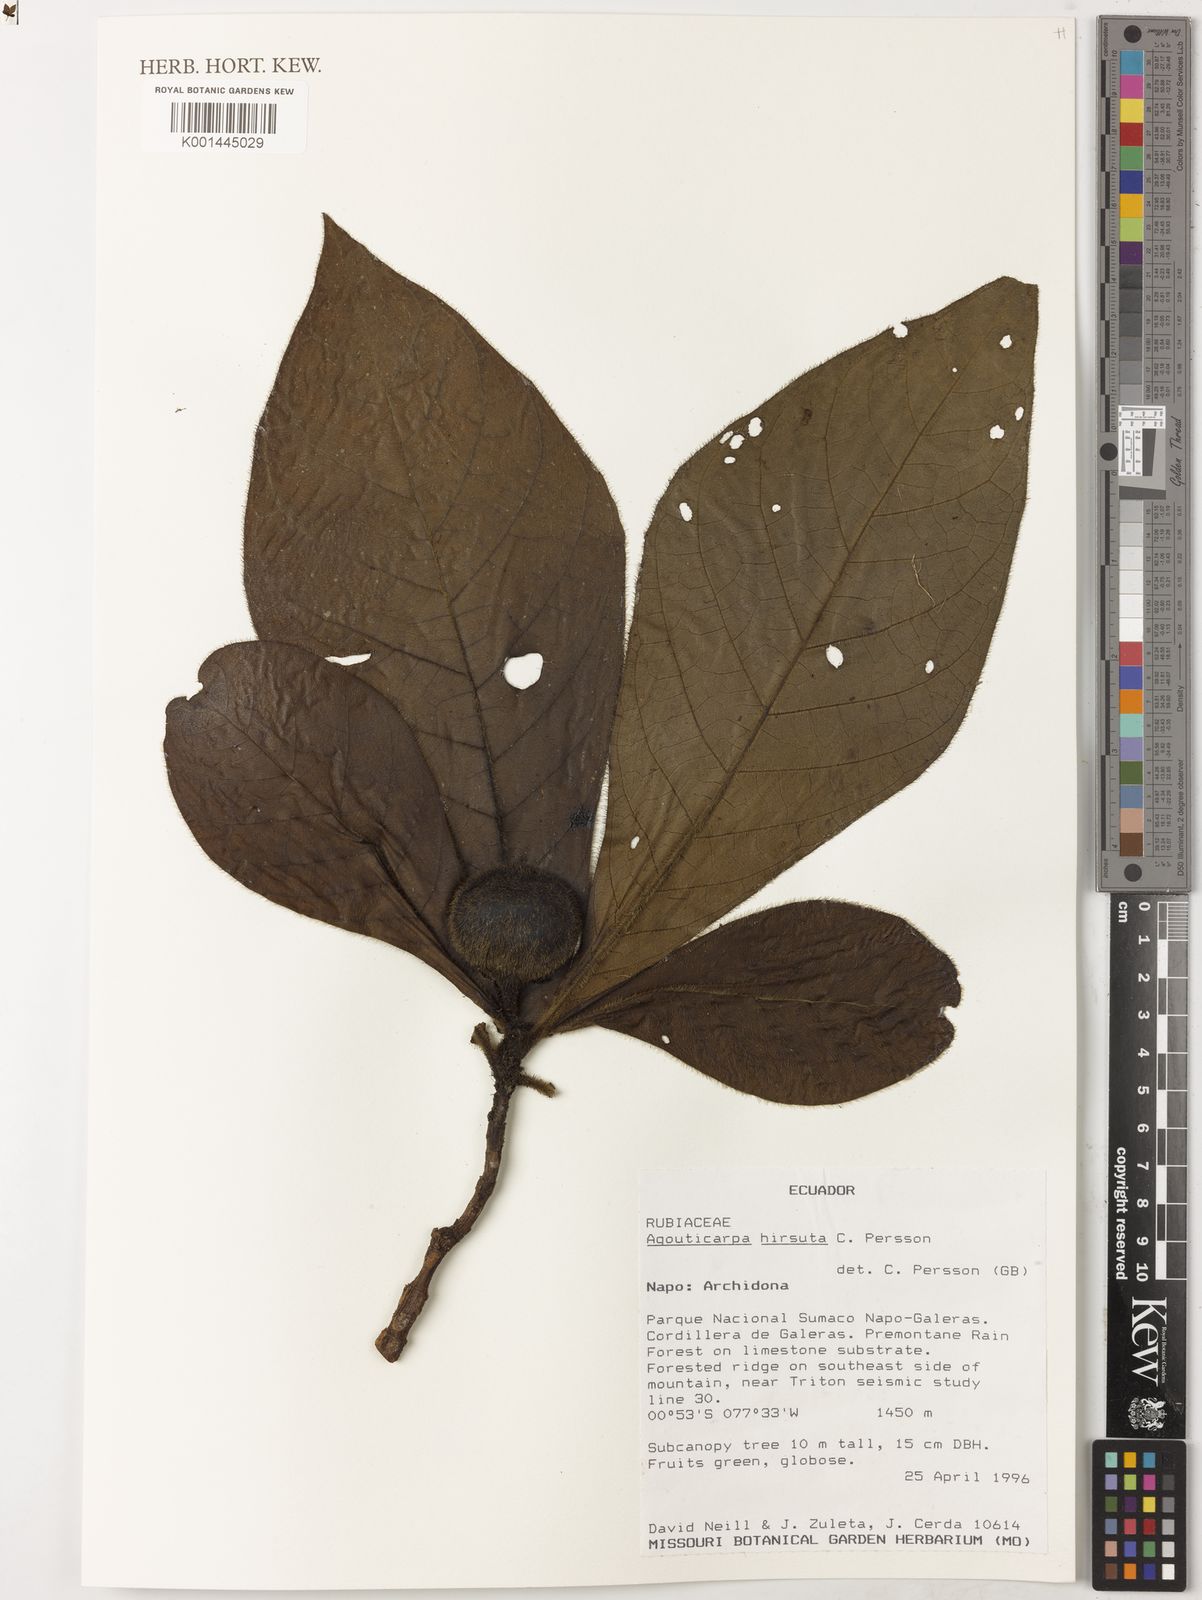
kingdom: Plantae
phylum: Tracheophyta
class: Magnoliopsida
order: Gentianales
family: Rubiaceae
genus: Agouticarpa
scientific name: Agouticarpa hirsuta
